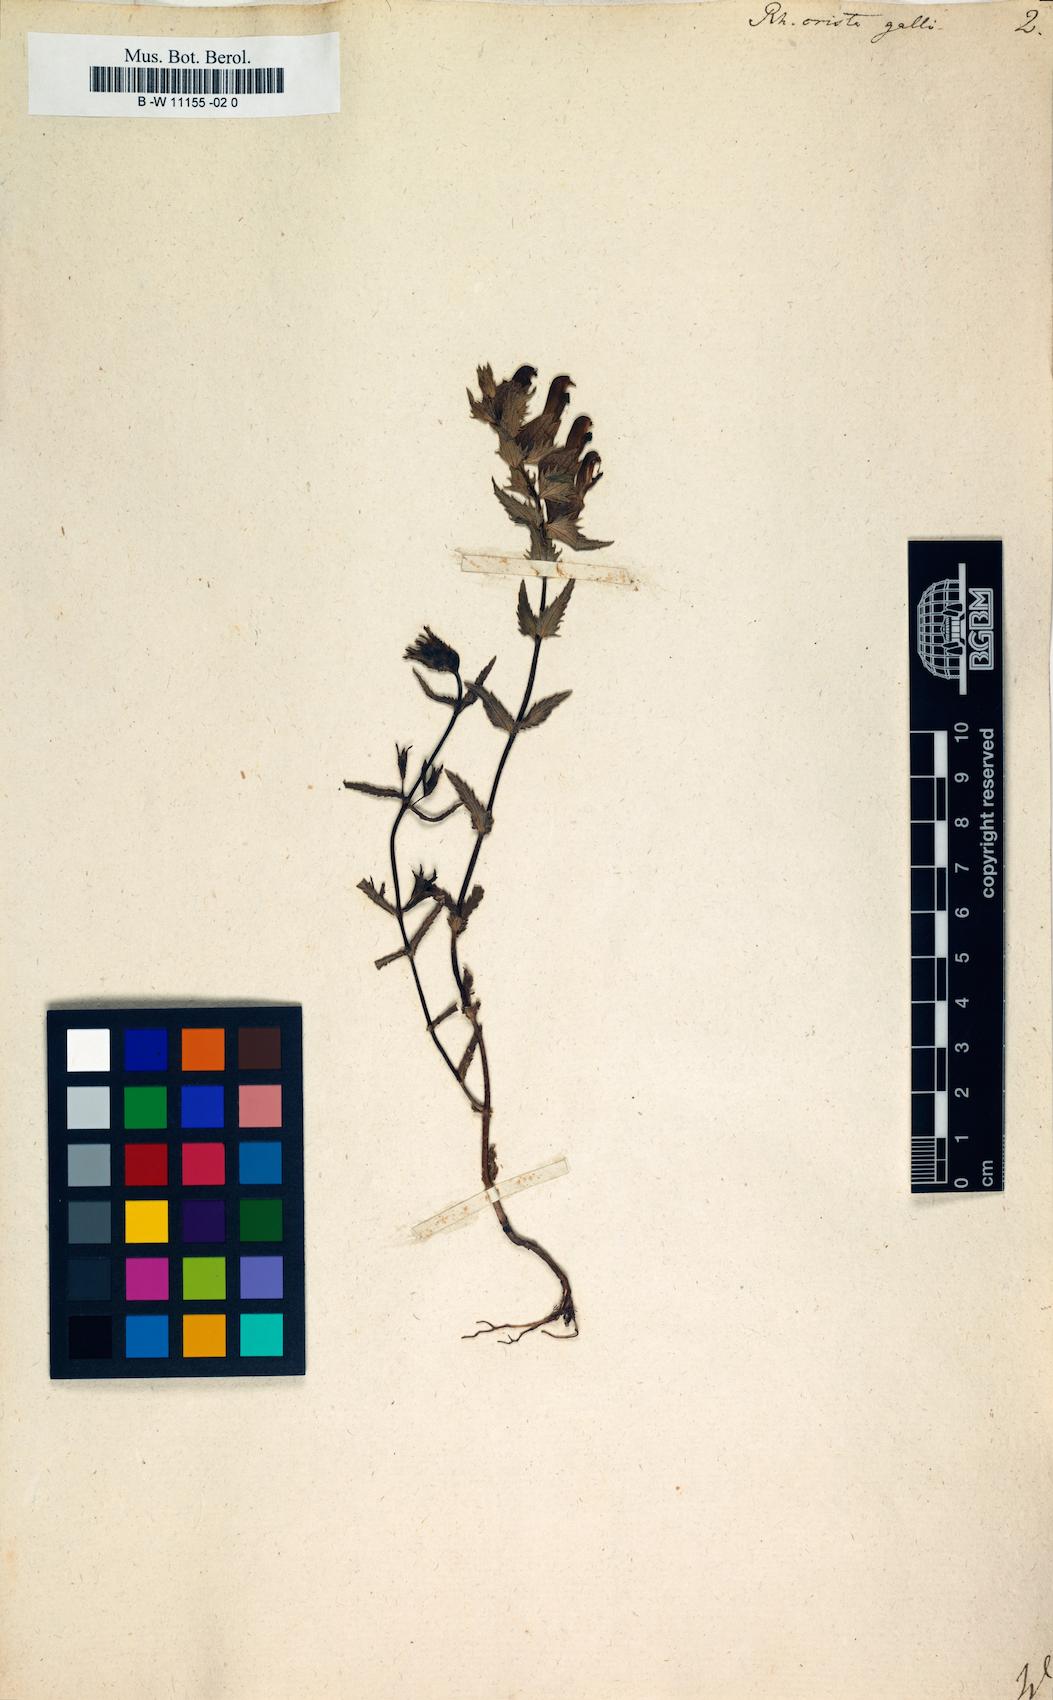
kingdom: Plantae
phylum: Tracheophyta
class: Magnoliopsida
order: Lamiales
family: Orobanchaceae
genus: Rhinanthus
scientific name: Rhinanthus
